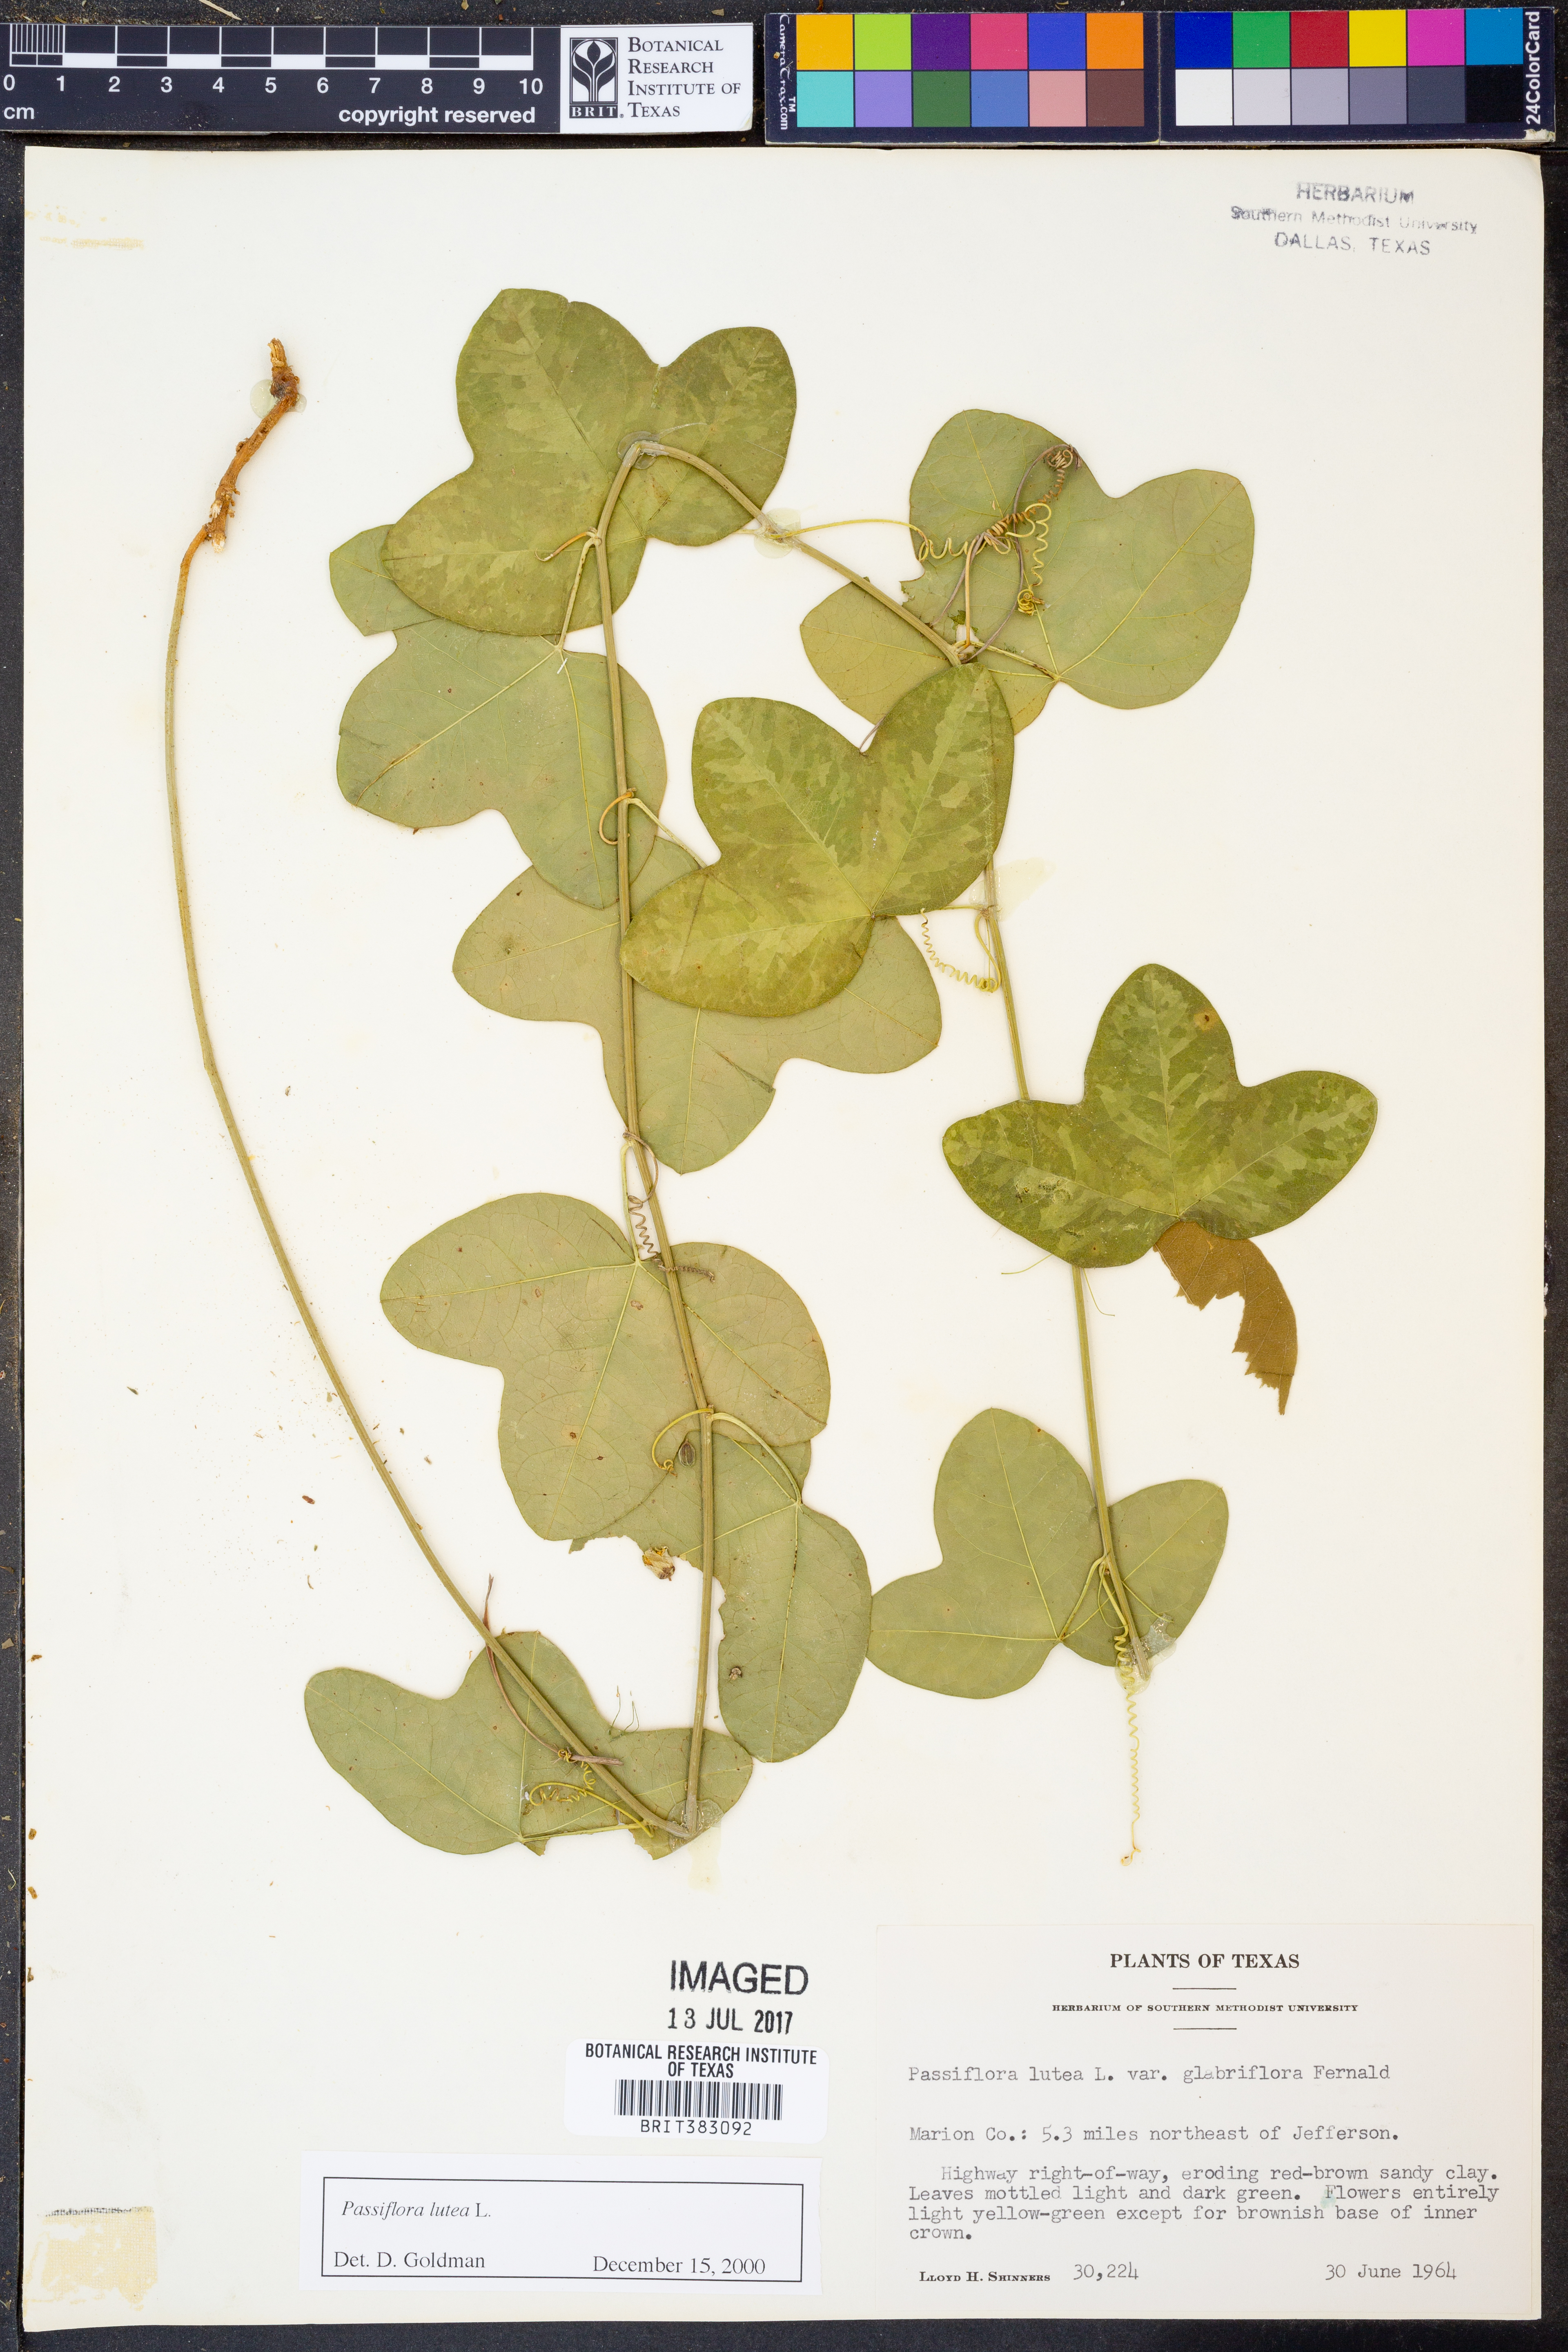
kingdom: Plantae
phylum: Tracheophyta
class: Magnoliopsida
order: Malpighiales
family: Passifloraceae
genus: Passiflora
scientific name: Passiflora lutea
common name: Yellow passionflower
